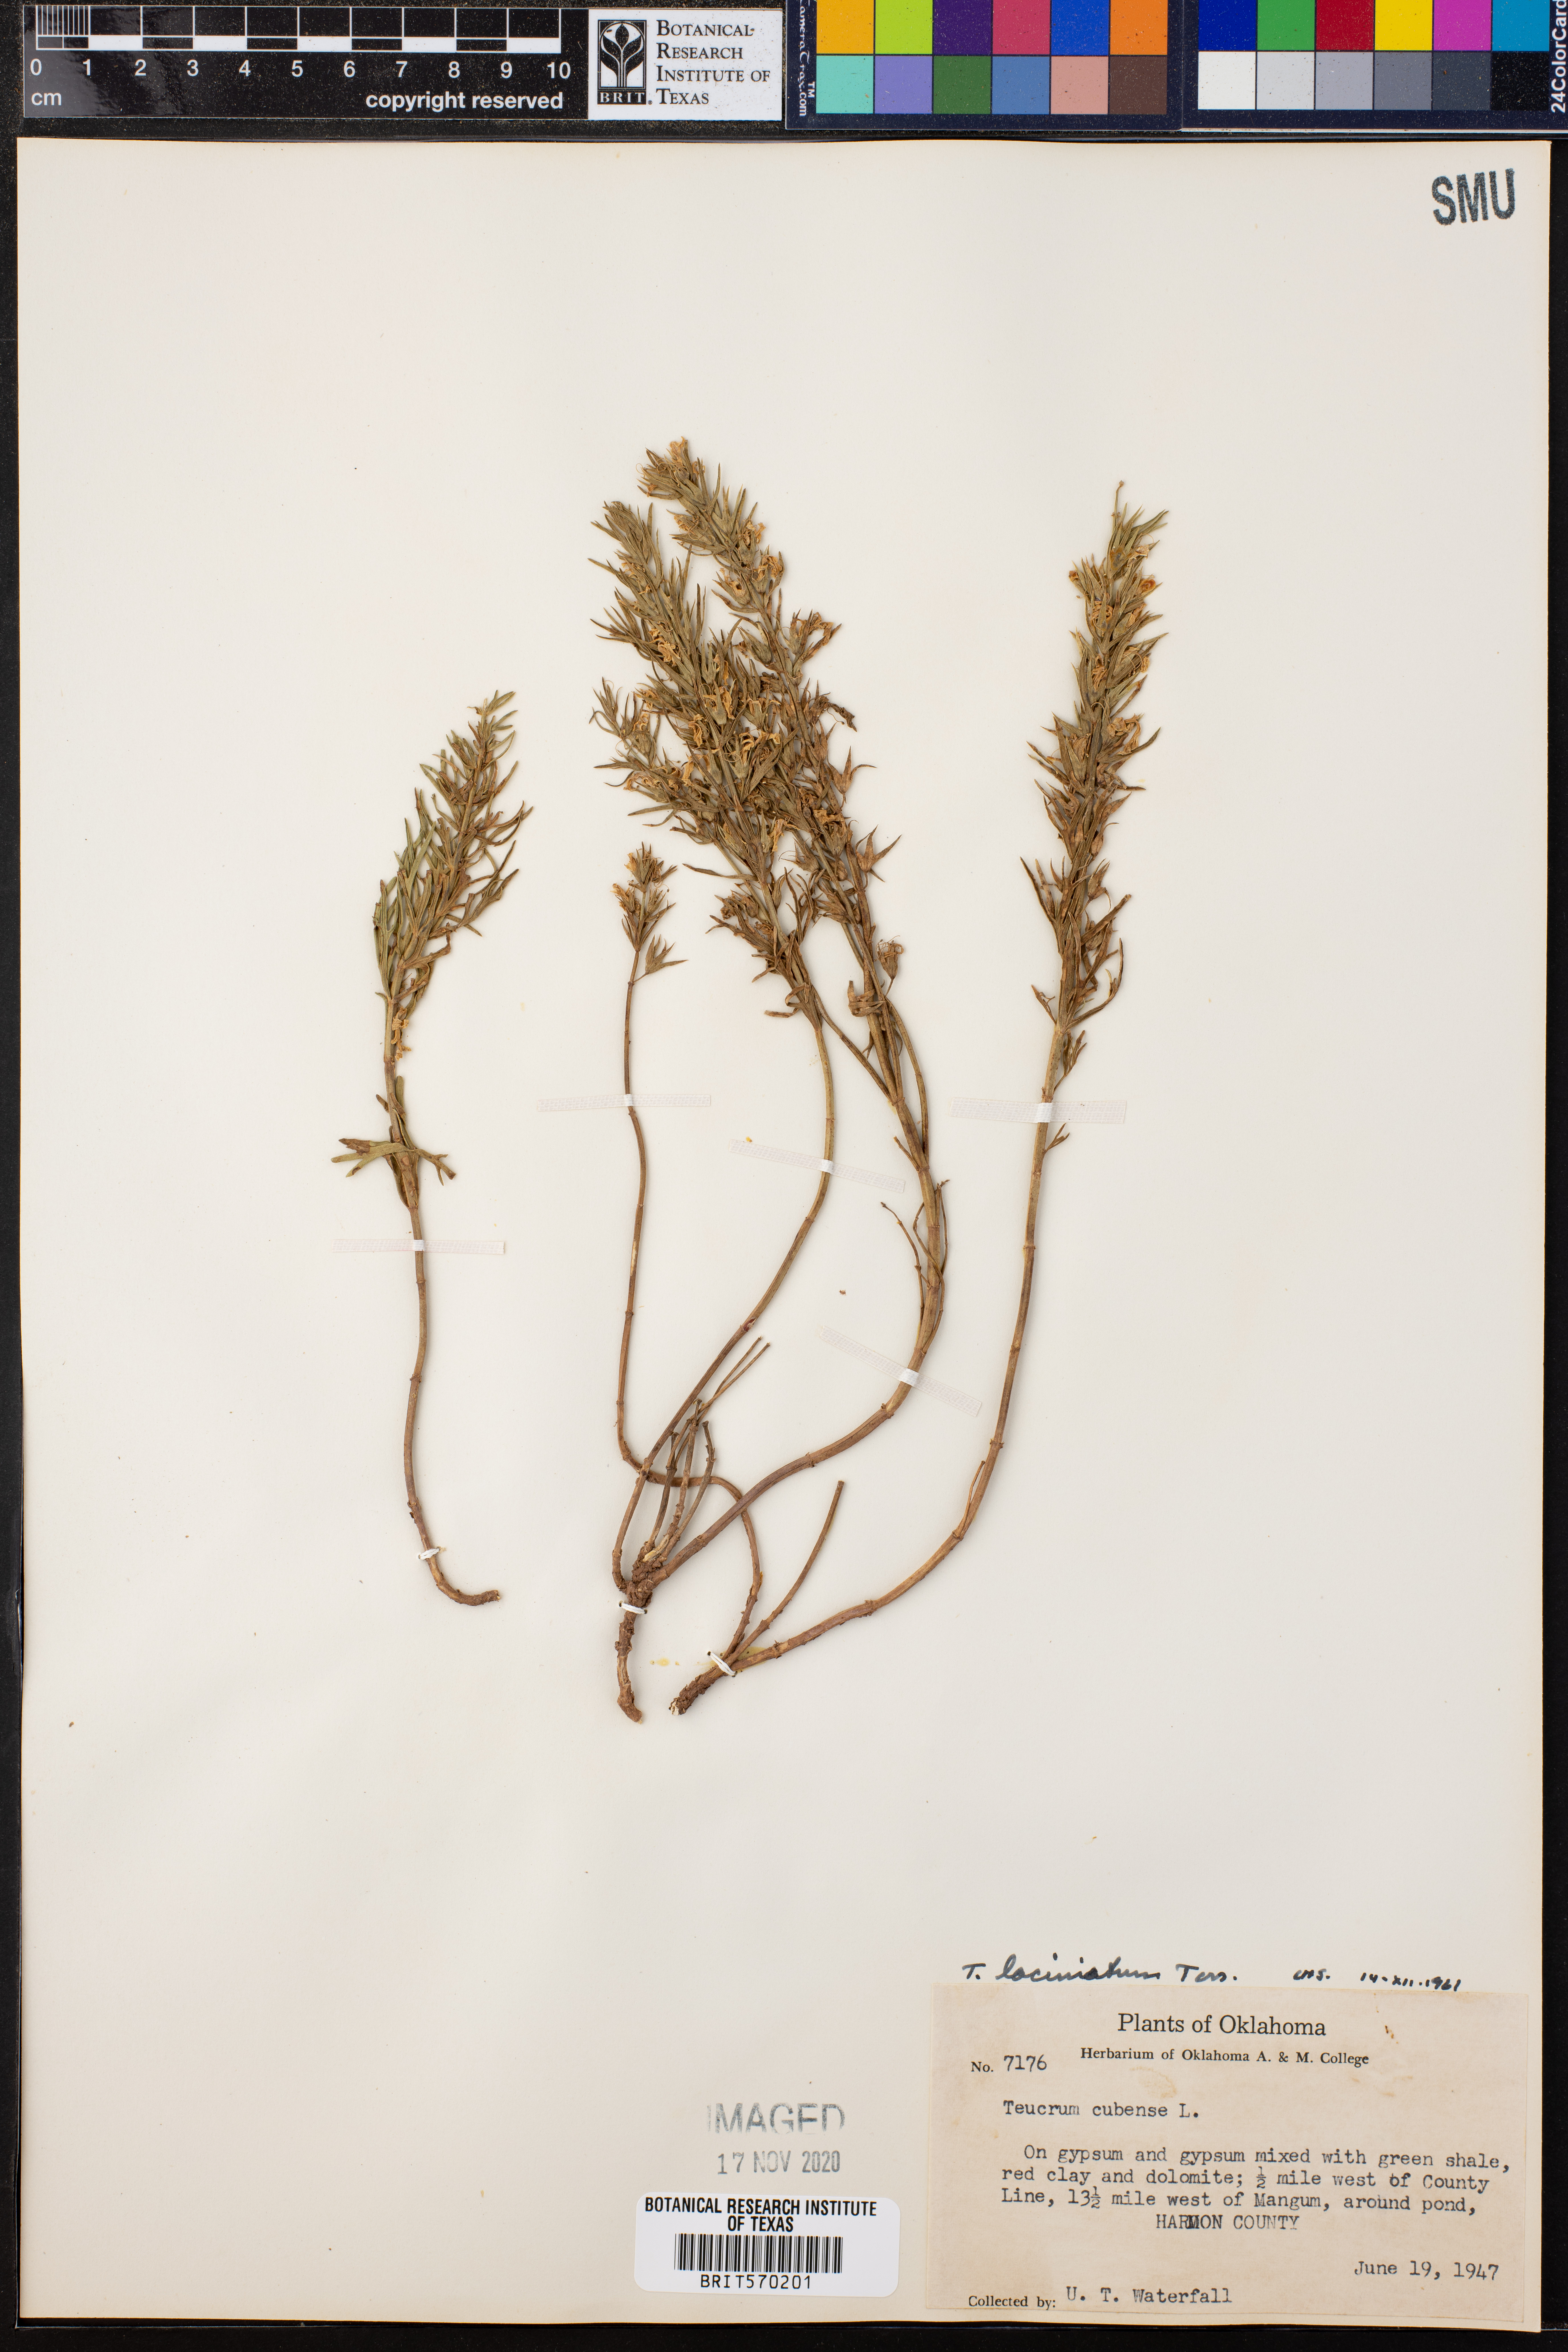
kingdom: Plantae
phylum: Tracheophyta
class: Magnoliopsida
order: Lamiales
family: Lamiaceae
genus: Teucrium
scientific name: Teucrium laciniatum
